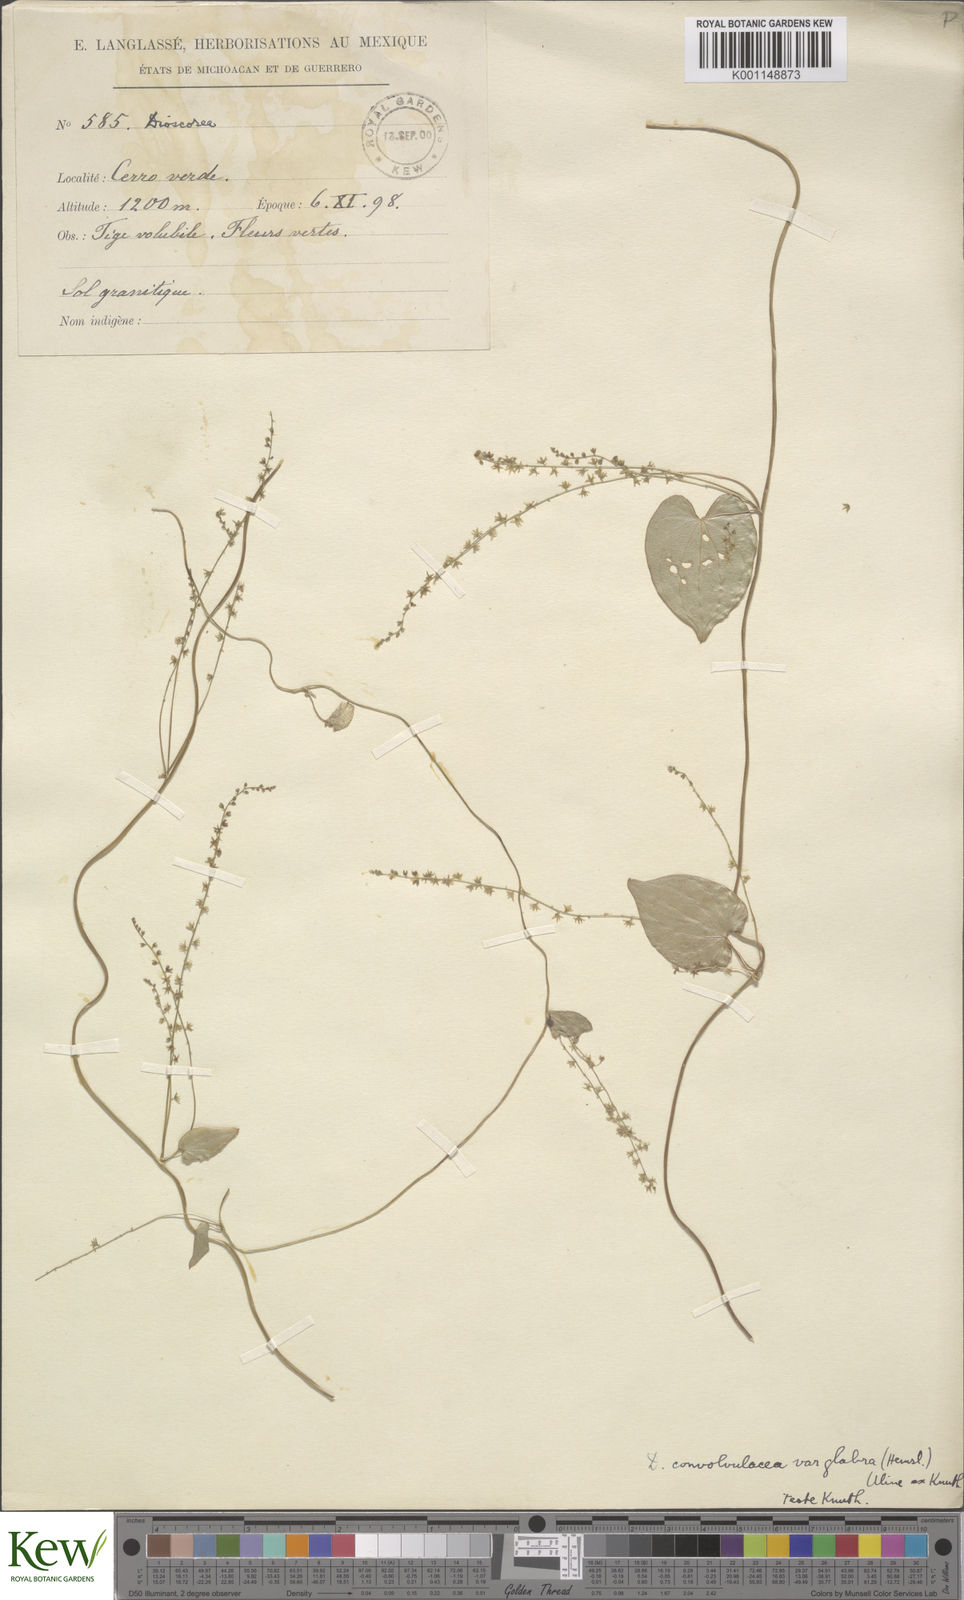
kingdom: Plantae
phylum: Tracheophyta
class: Liliopsida
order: Dioscoreales
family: Dioscoreaceae
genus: Dioscorea
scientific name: Dioscorea convolvulacea
